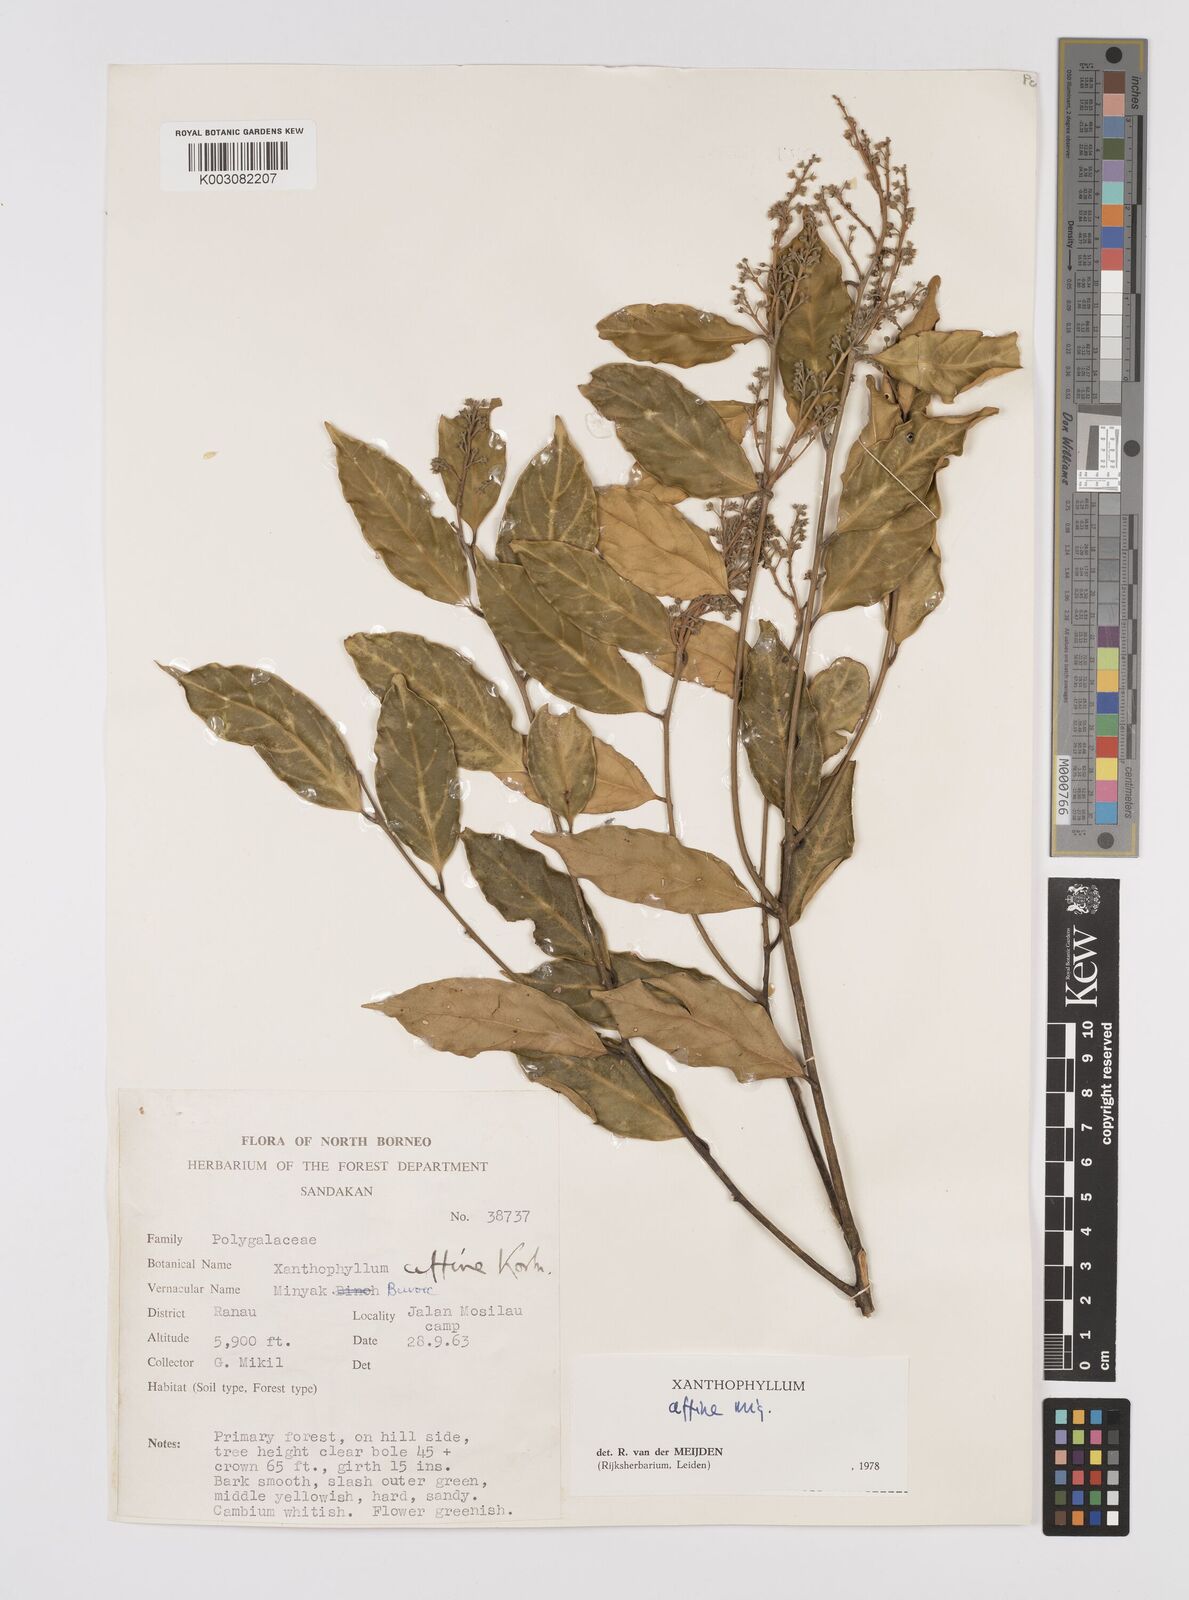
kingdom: Plantae
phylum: Tracheophyta
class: Magnoliopsida
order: Fabales
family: Polygalaceae
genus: Xanthophyllum
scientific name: Xanthophyllum flavescens
